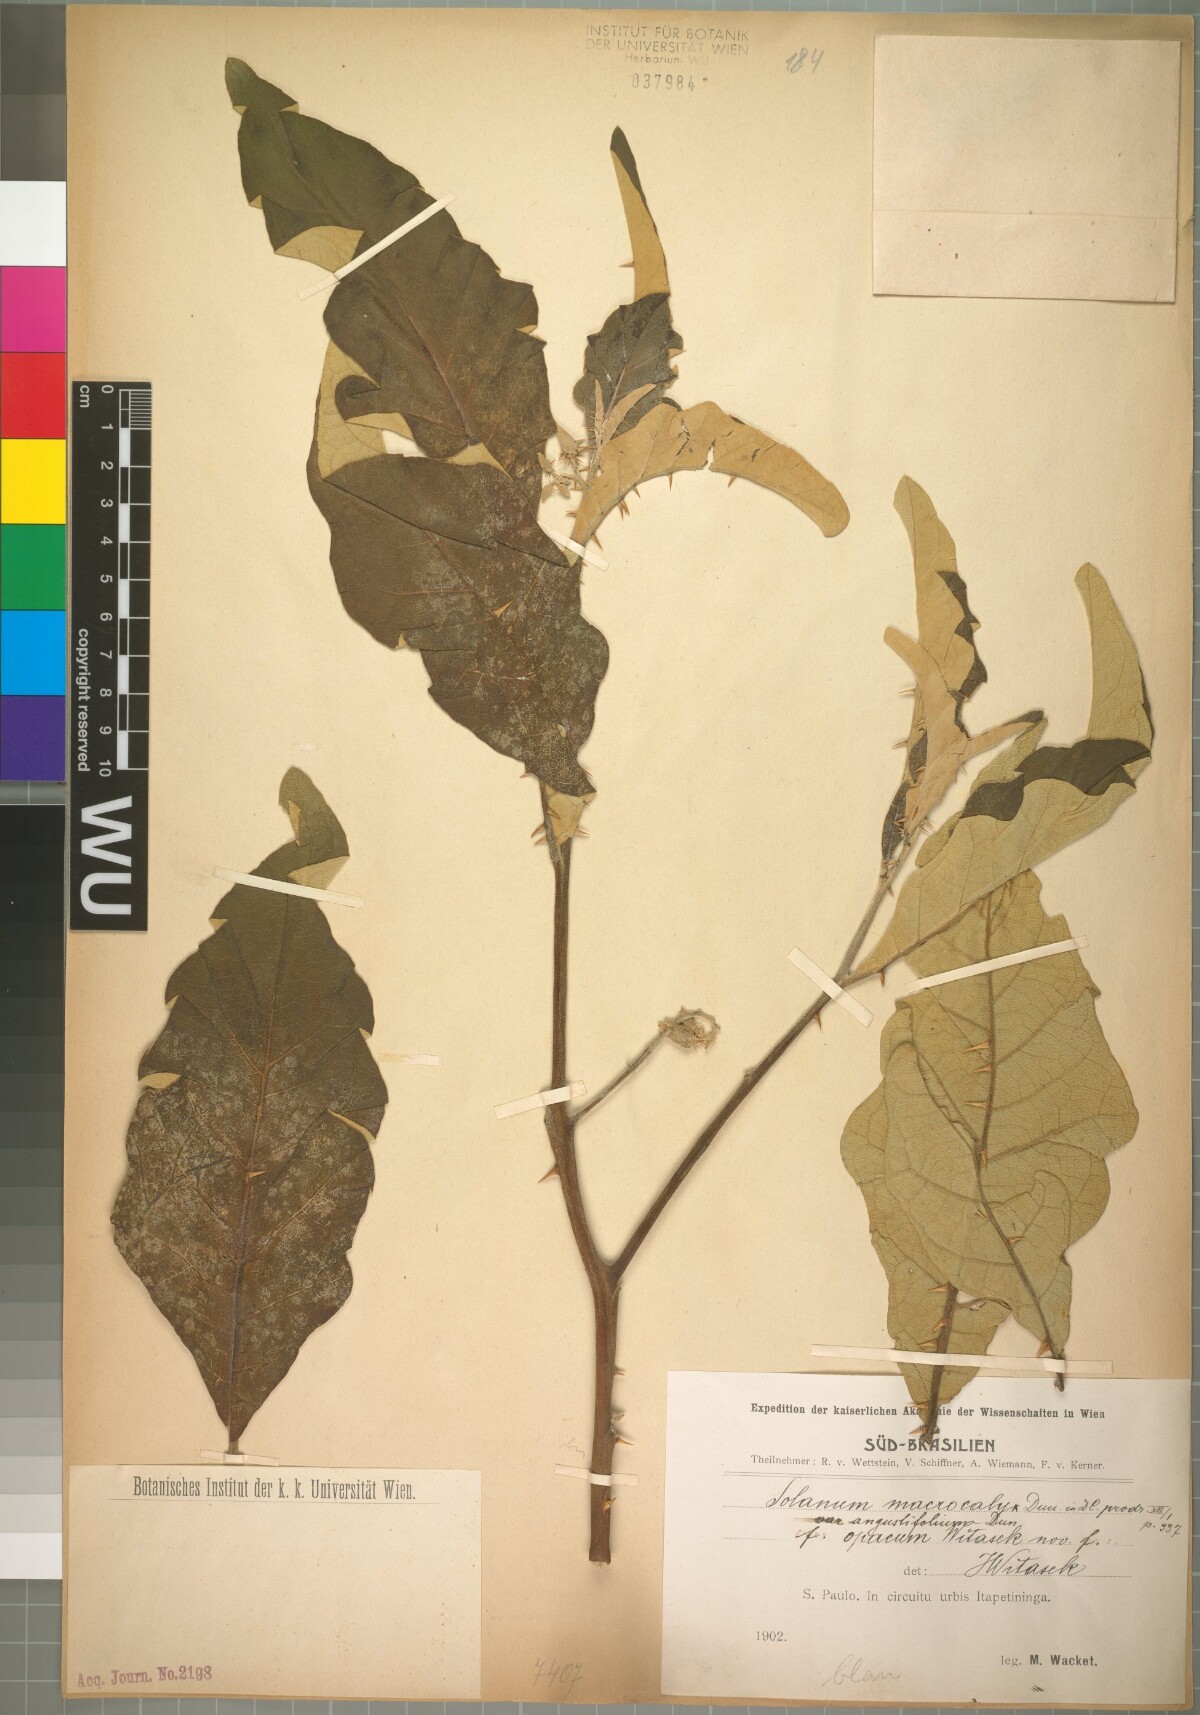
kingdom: Plantae
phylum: Tracheophyta
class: Magnoliopsida
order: Solanales
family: Solanaceae
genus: Solanum
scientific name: Solanum gomphodes
